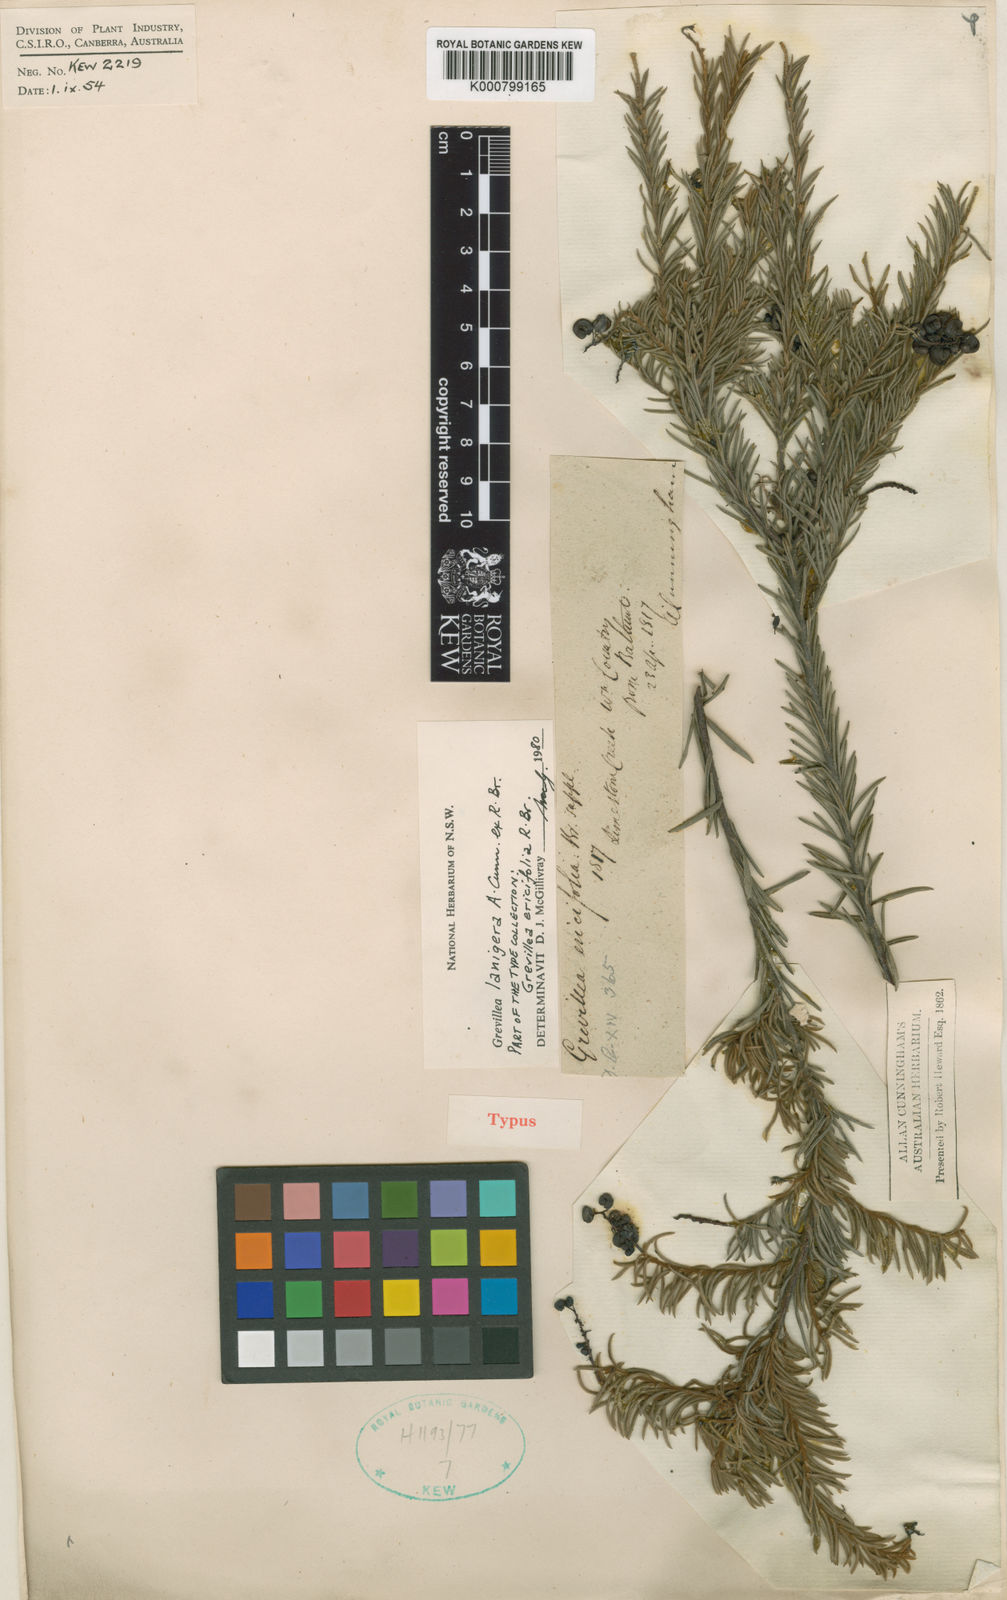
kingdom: Plantae
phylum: Tracheophyta
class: Magnoliopsida
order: Proteales
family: Proteaceae
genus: Grevillea
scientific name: Grevillea lanigera
